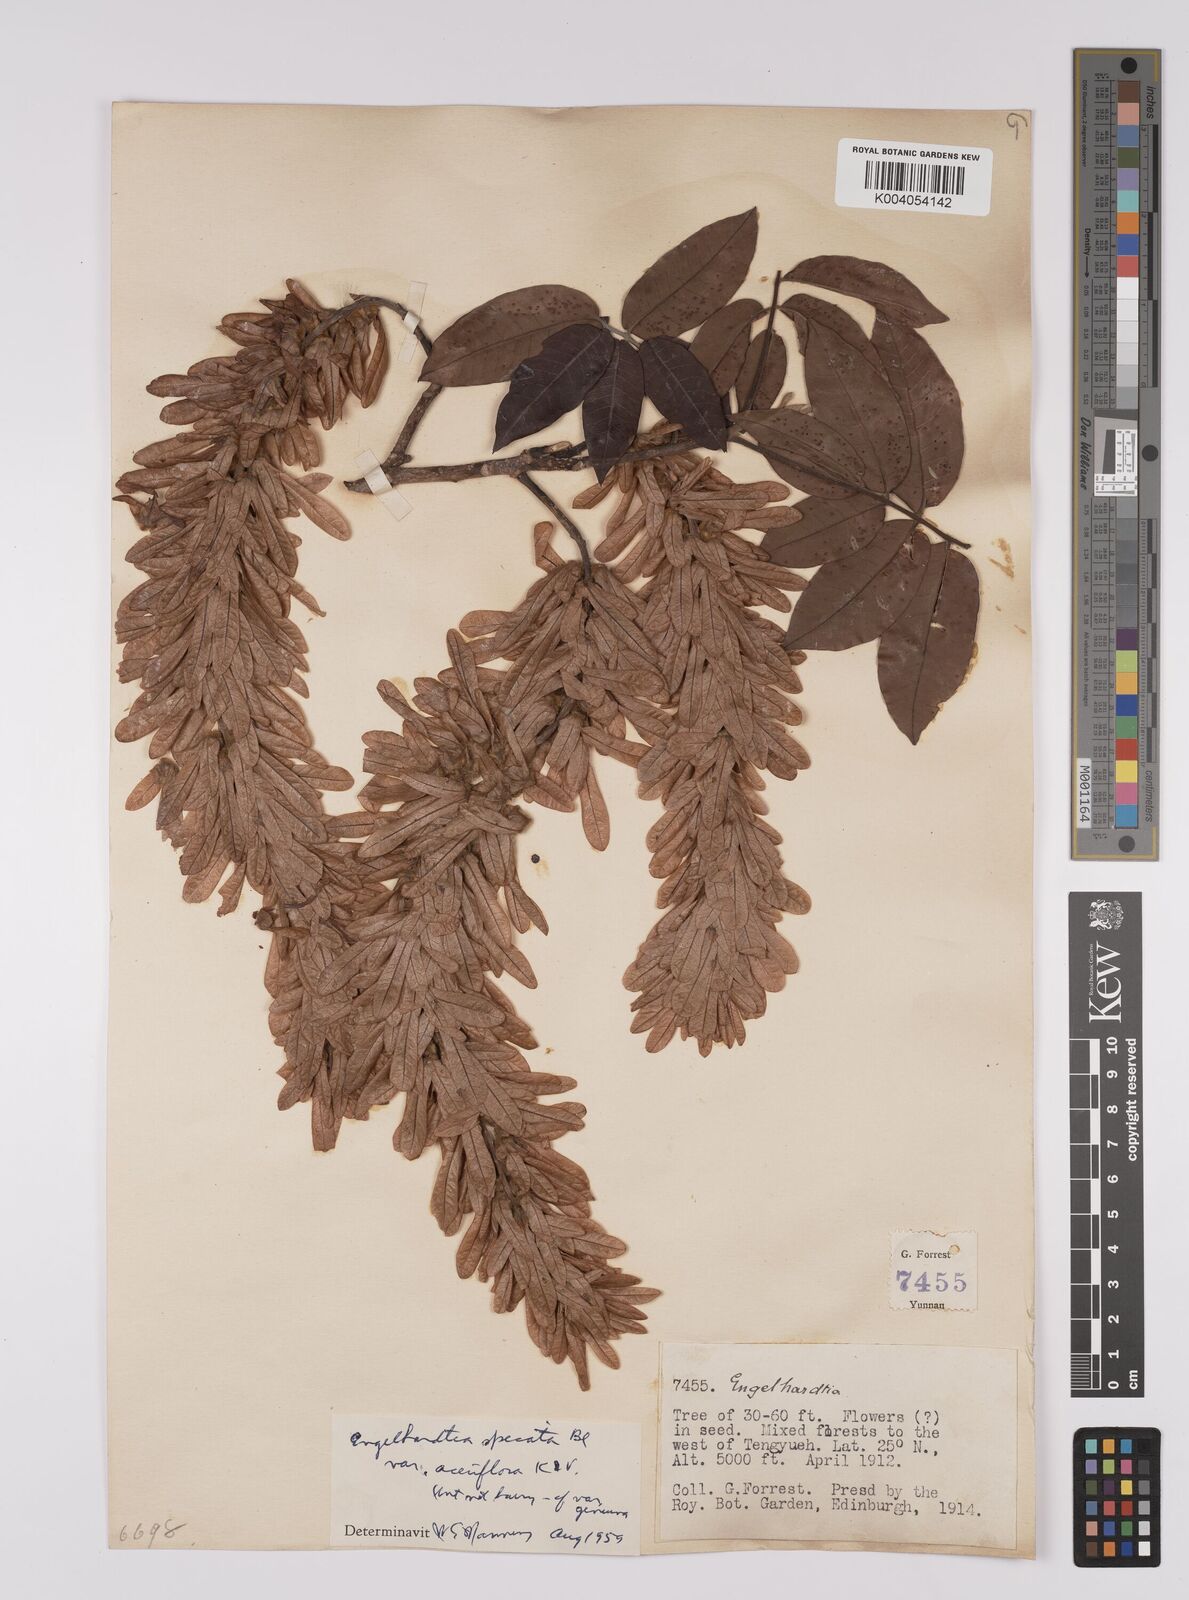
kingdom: Plantae
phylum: Tracheophyta
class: Magnoliopsida
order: Fagales
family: Juglandaceae
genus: Engelhardia
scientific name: Engelhardia spicata
